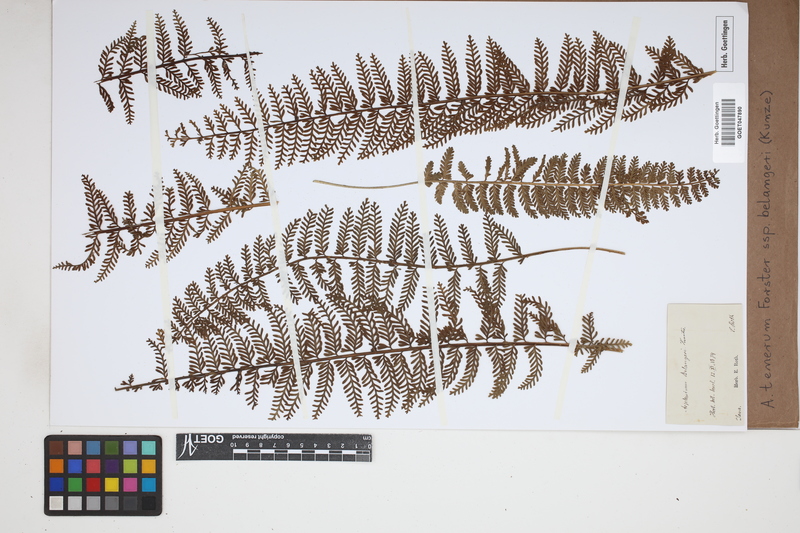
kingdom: Plantae
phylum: Tracheophyta
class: Polypodiopsida
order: Polypodiales
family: Aspleniaceae
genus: Asplenium
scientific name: Asplenium tenerum
